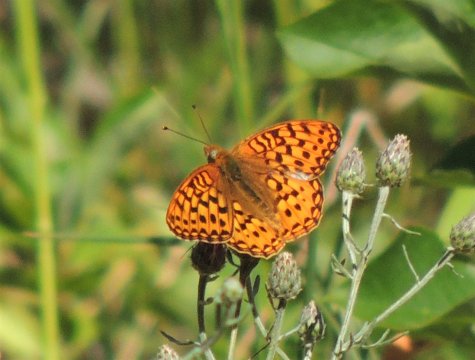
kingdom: Animalia
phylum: Arthropoda
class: Insecta
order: Lepidoptera
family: Nymphalidae
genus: Speyeria
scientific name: Speyeria coronis
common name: Coronis Fritillary
